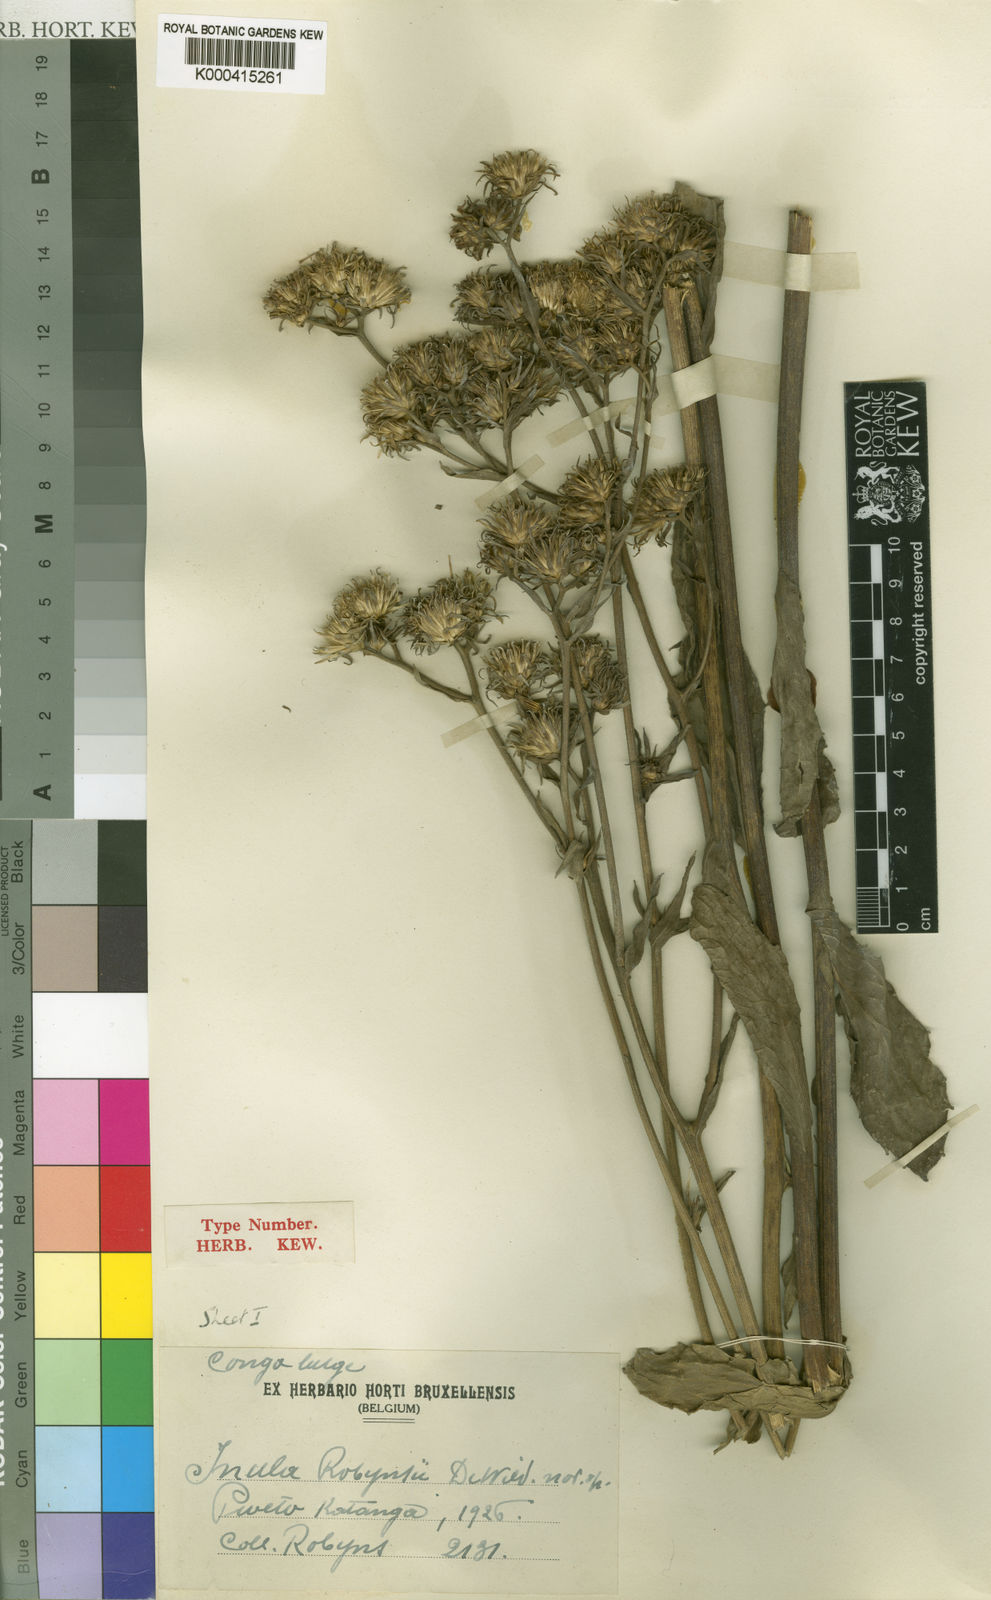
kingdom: Plantae
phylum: Tracheophyta
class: Magnoliopsida
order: Asterales
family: Asteraceae
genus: Inula
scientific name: Inula robynsii
